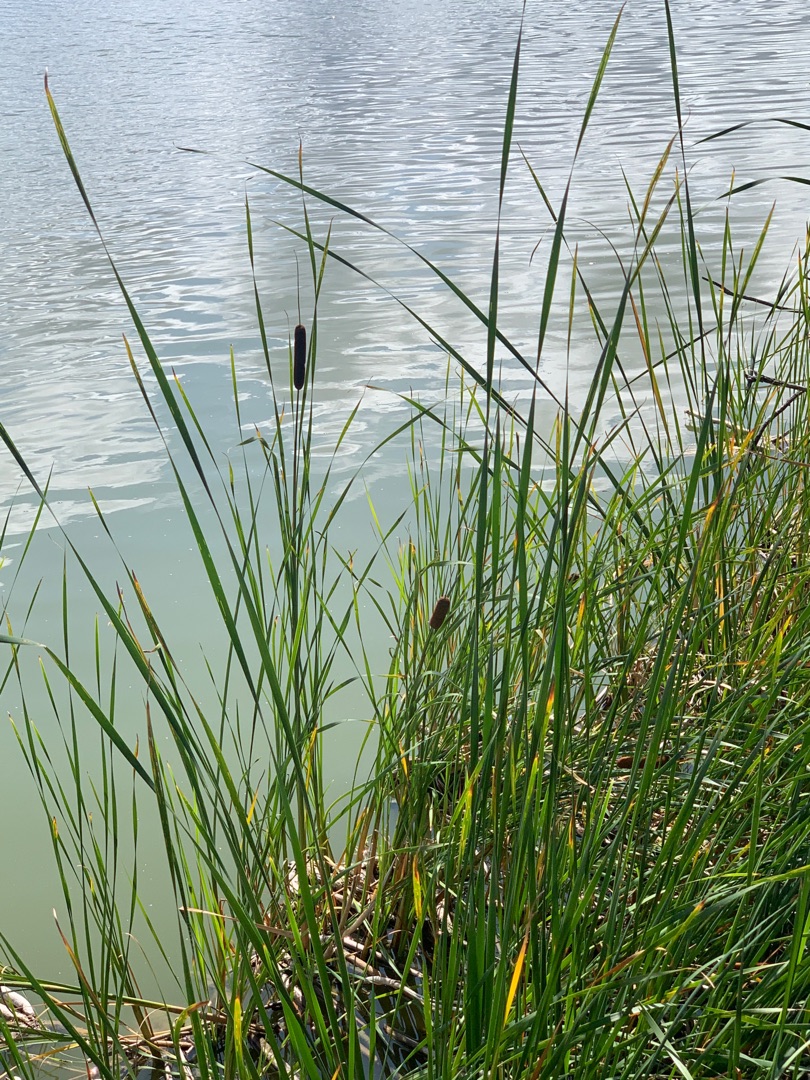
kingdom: Plantae
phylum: Tracheophyta
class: Liliopsida
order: Poales
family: Typhaceae
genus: Typha
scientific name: Typha angustifolia
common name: Smalbladet dunhammer
